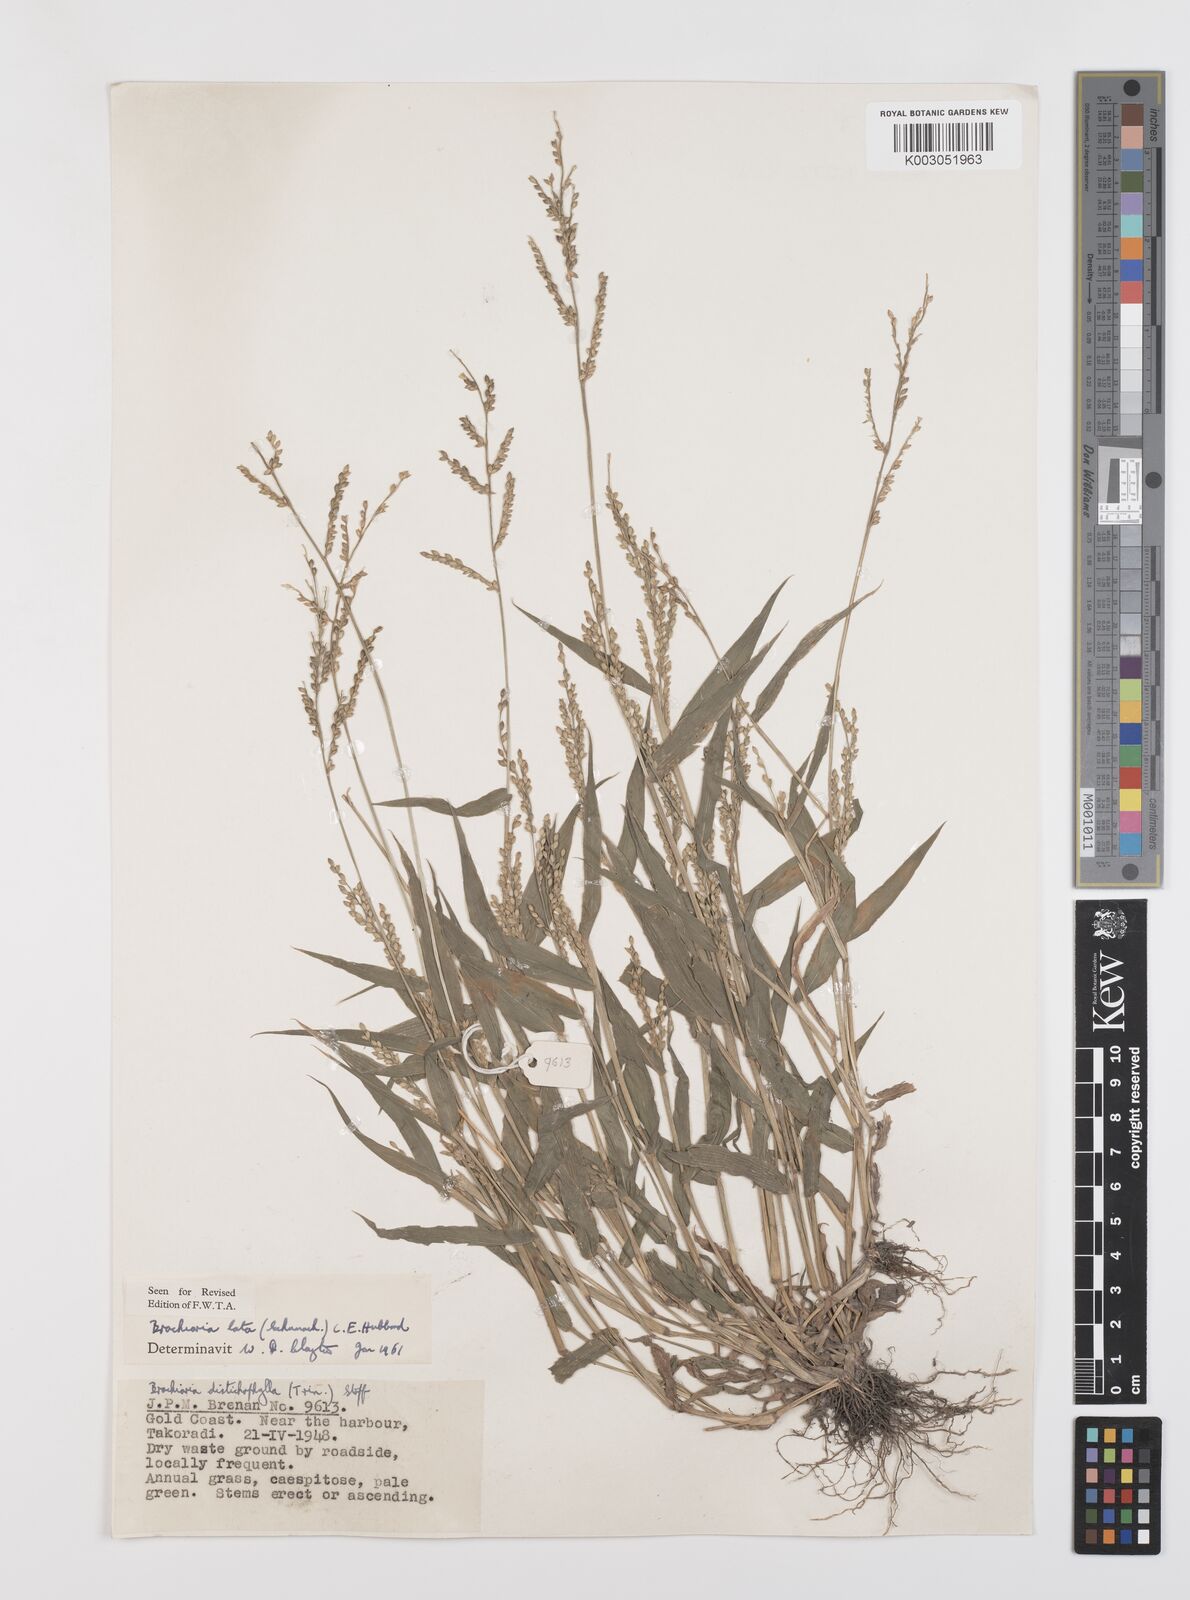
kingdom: Plantae
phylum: Tracheophyta
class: Liliopsida
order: Poales
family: Poaceae
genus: Urochloa
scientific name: Urochloa lata
